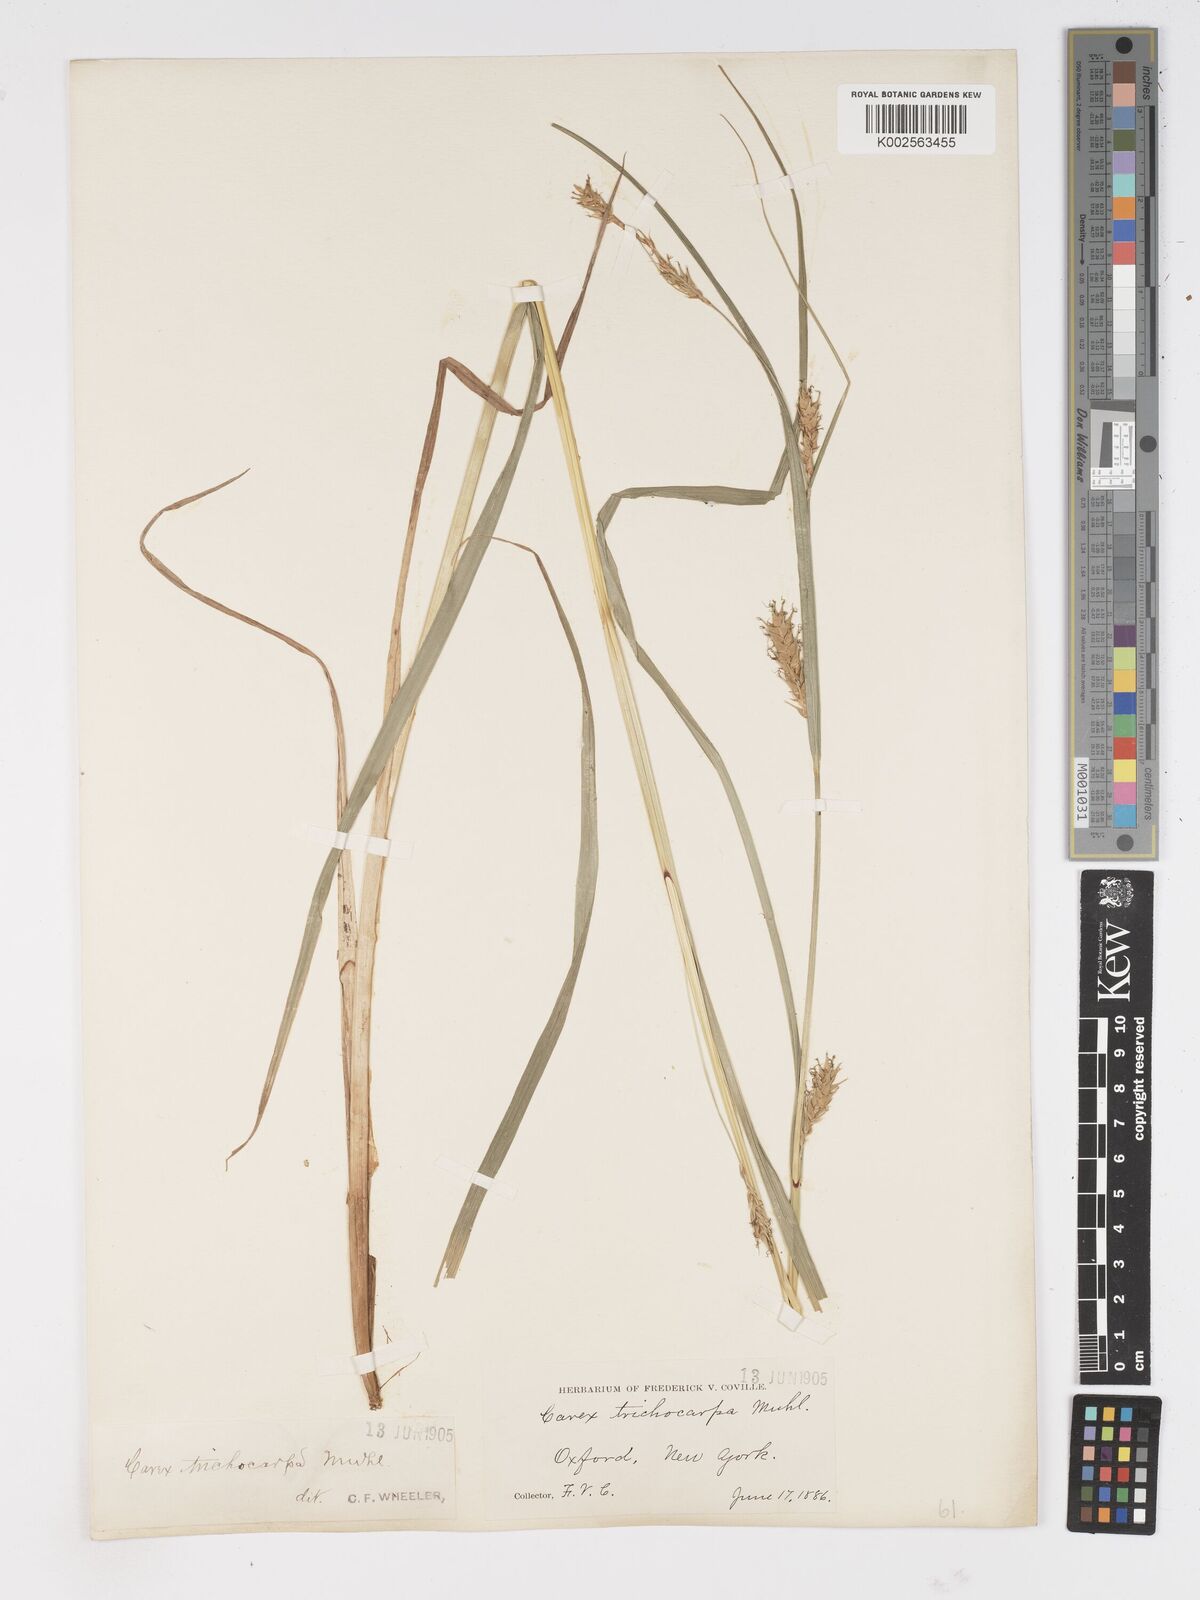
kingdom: Plantae
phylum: Tracheophyta
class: Liliopsida
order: Poales
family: Cyperaceae
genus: Carex
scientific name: Carex trichocarpa
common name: Hairy-fruited lake sedge
